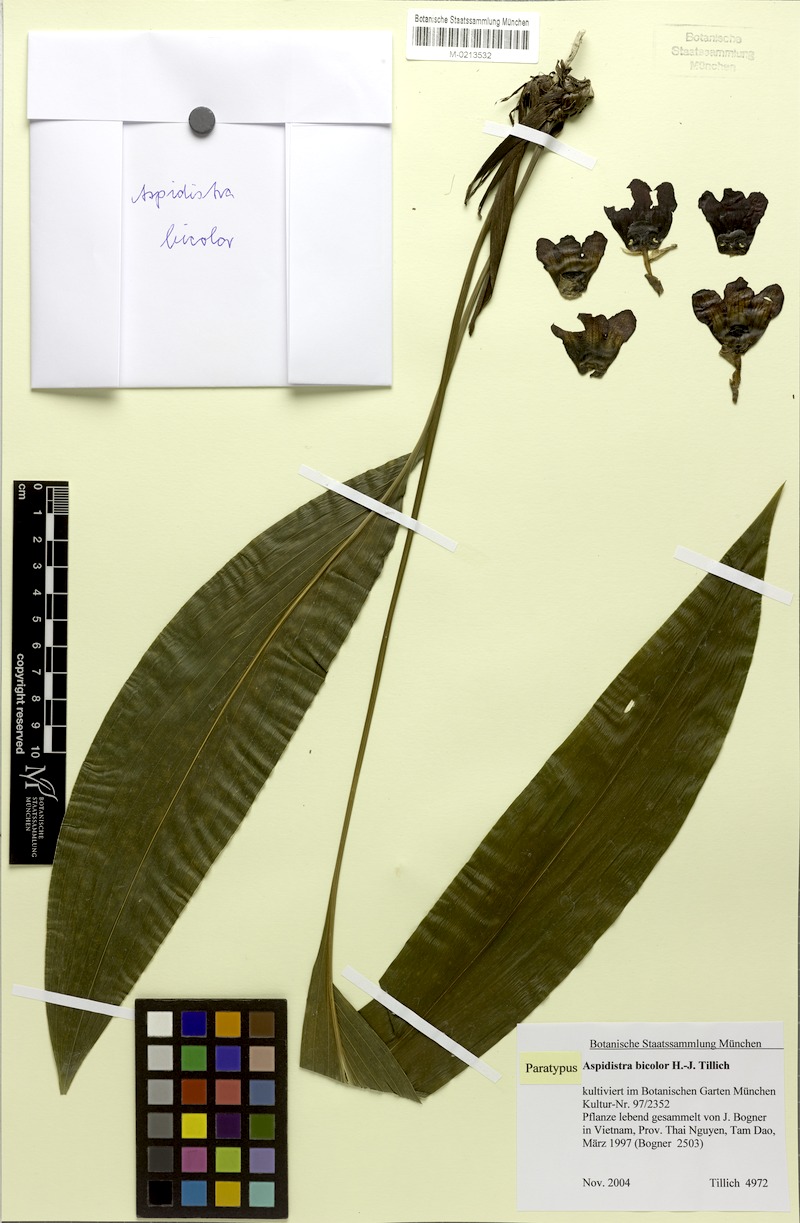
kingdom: Plantae
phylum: Tracheophyta
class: Liliopsida
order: Asparagales
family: Asparagaceae
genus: Aspidistra
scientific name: Aspidistra bicolor
